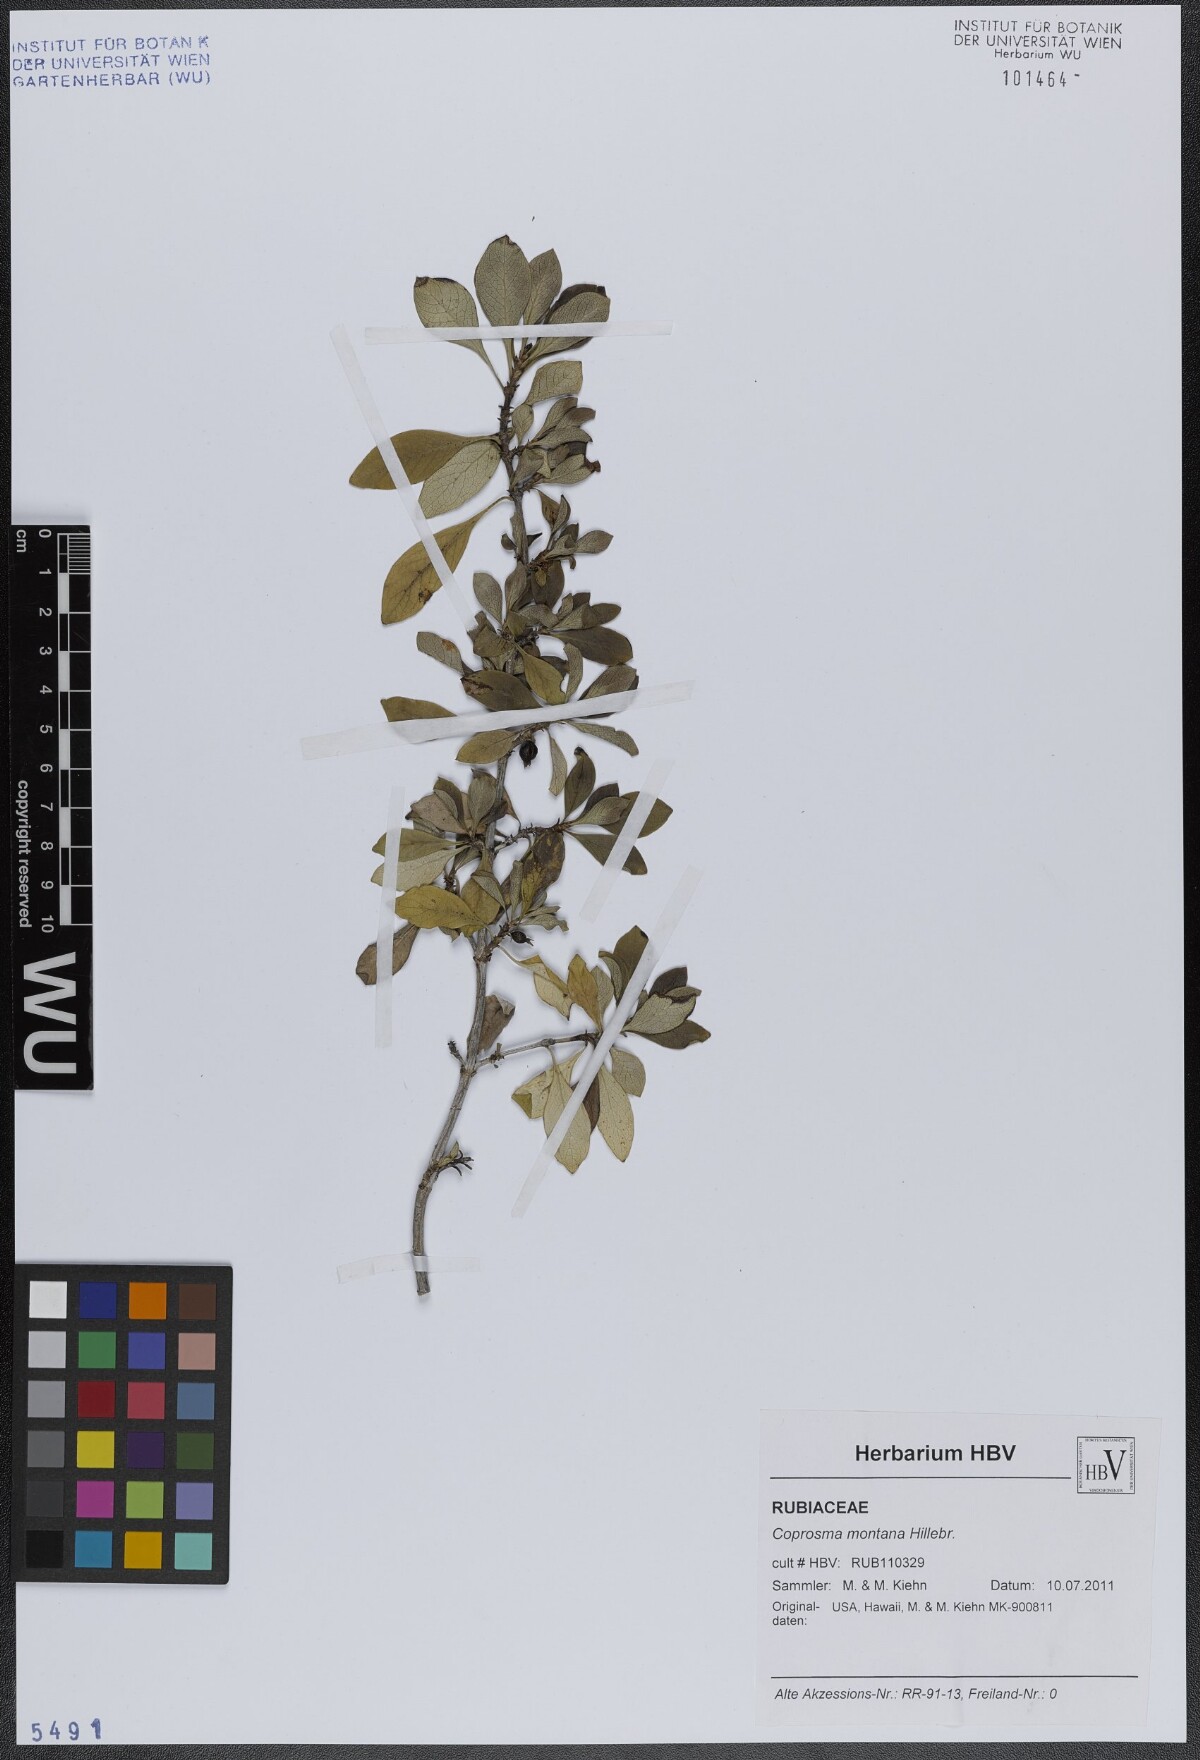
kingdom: Plantae
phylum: Tracheophyta
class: Magnoliopsida
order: Gentianales
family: Rubiaceae
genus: Coprosma
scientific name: Coprosma montana
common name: Alpine mirror plant
